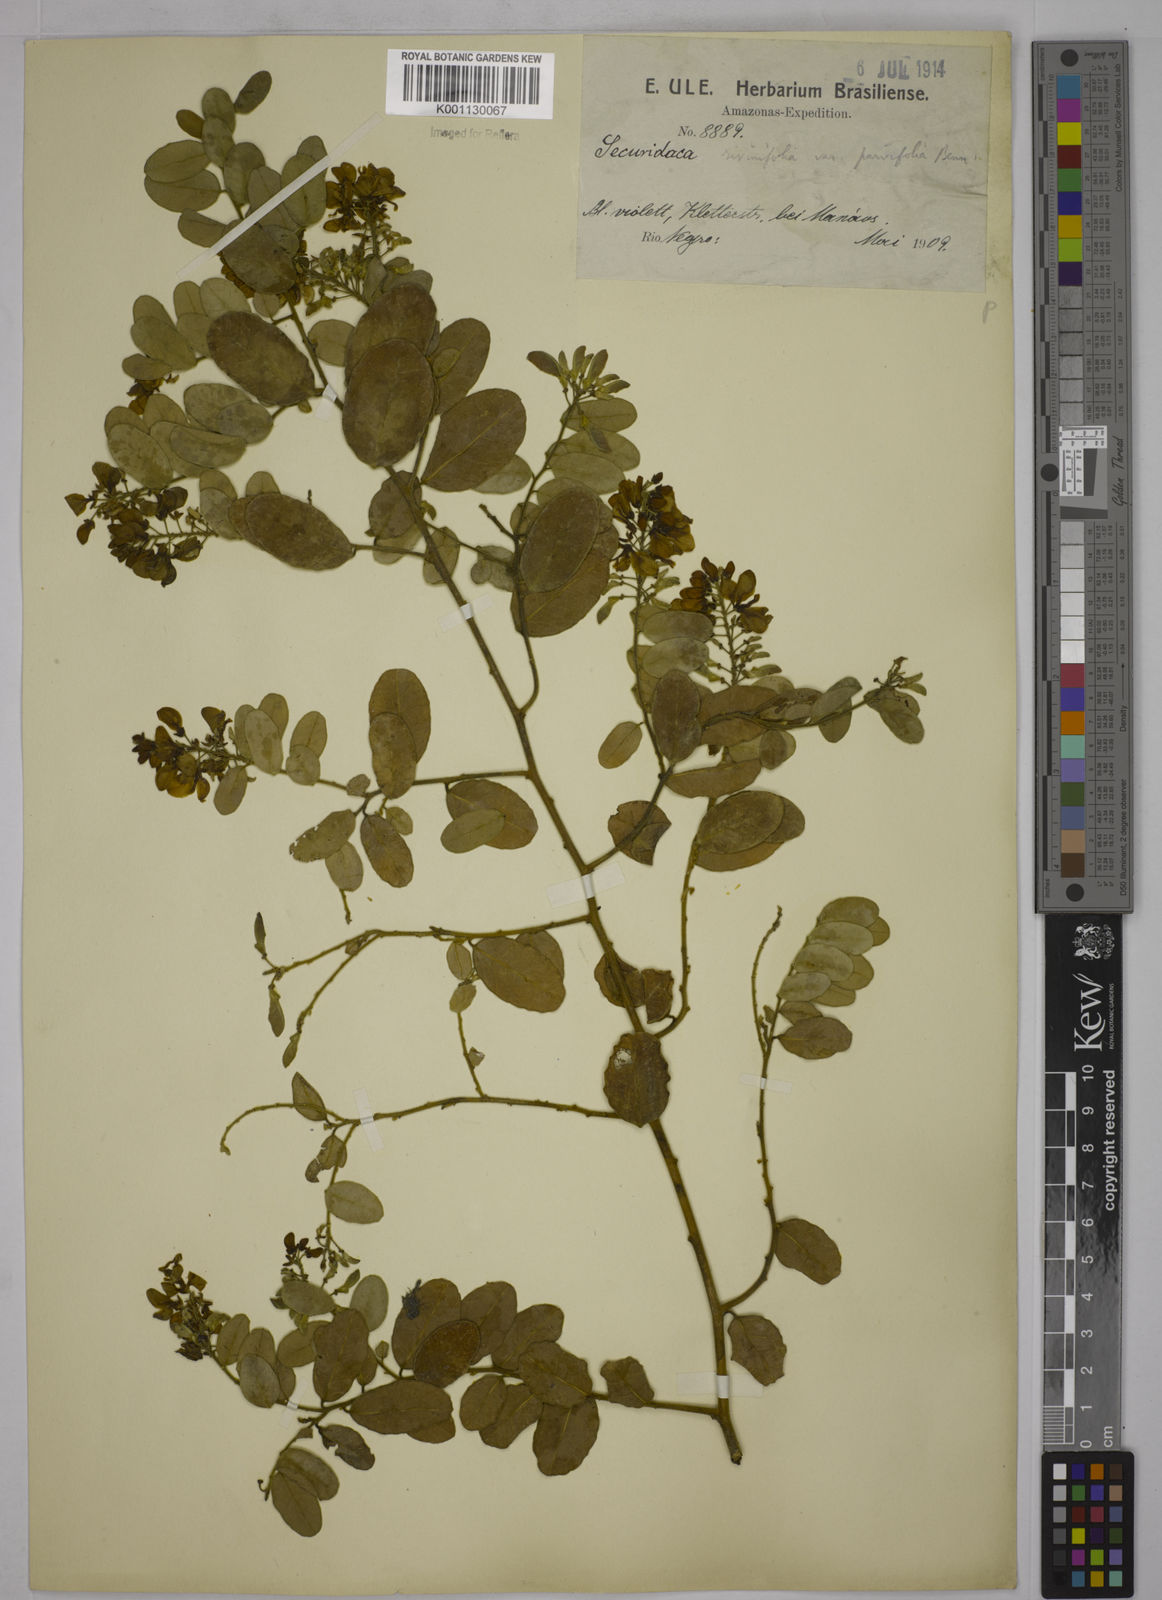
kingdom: Plantae
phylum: Tracheophyta
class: Magnoliopsida
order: Fabales
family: Polygalaceae
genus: Securidaca
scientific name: Securidaca rivinifolia
